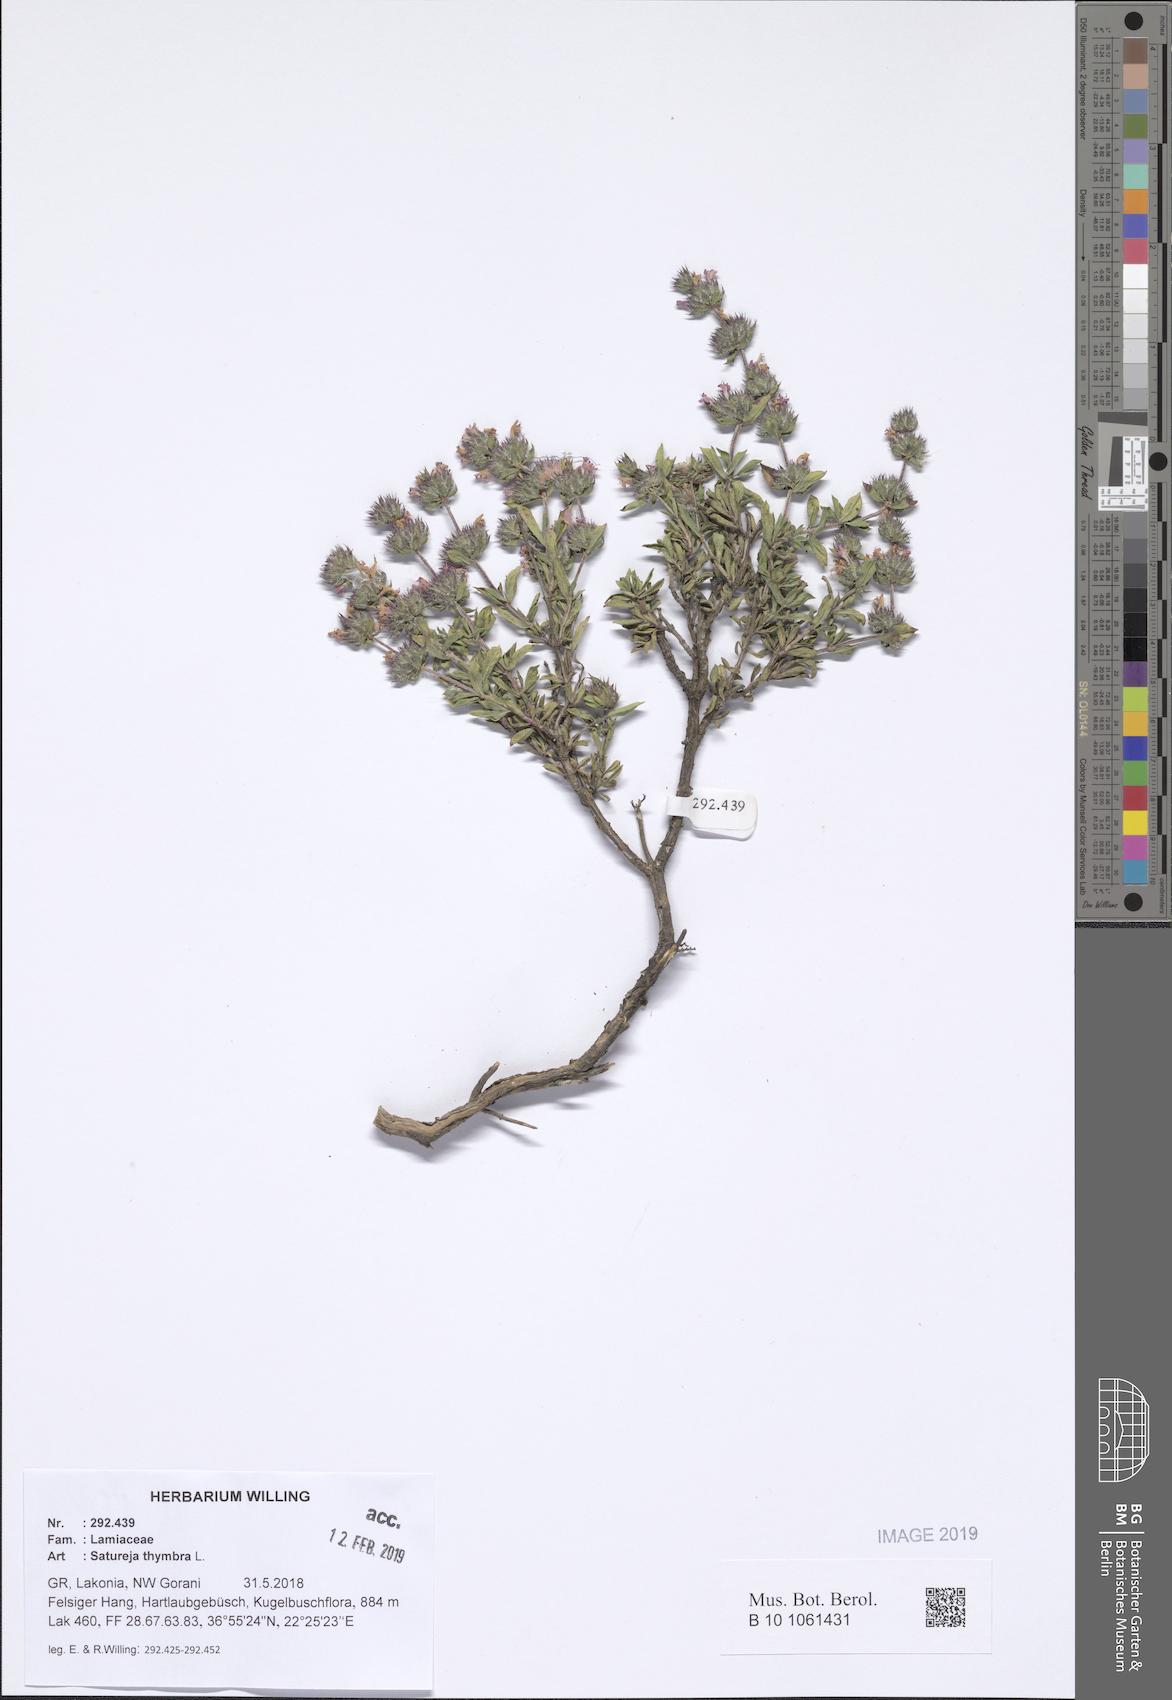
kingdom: Plantae
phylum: Tracheophyta
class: Magnoliopsida
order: Lamiales
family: Lamiaceae
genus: Satureja
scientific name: Satureja thymbra
